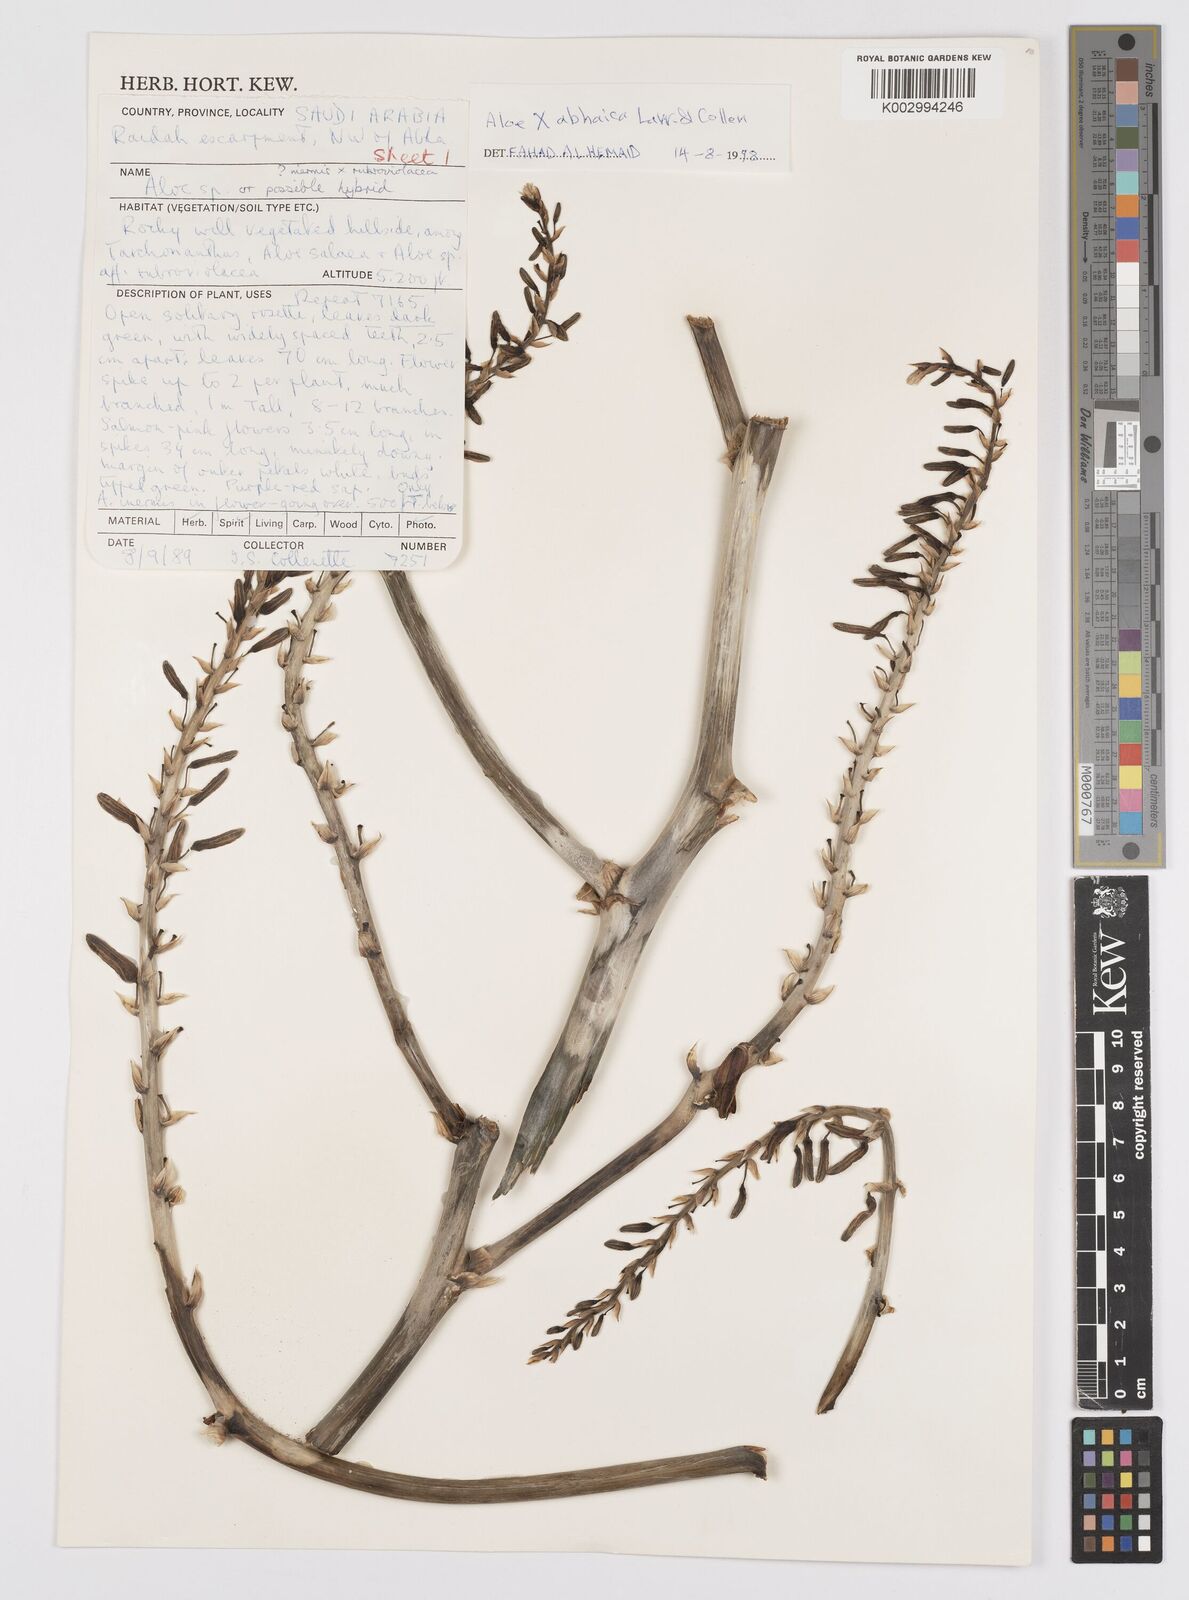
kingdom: Plantae
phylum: Tracheophyta
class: Liliopsida
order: Asparagales
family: Asphodelaceae
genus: Aloe
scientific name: Aloe
